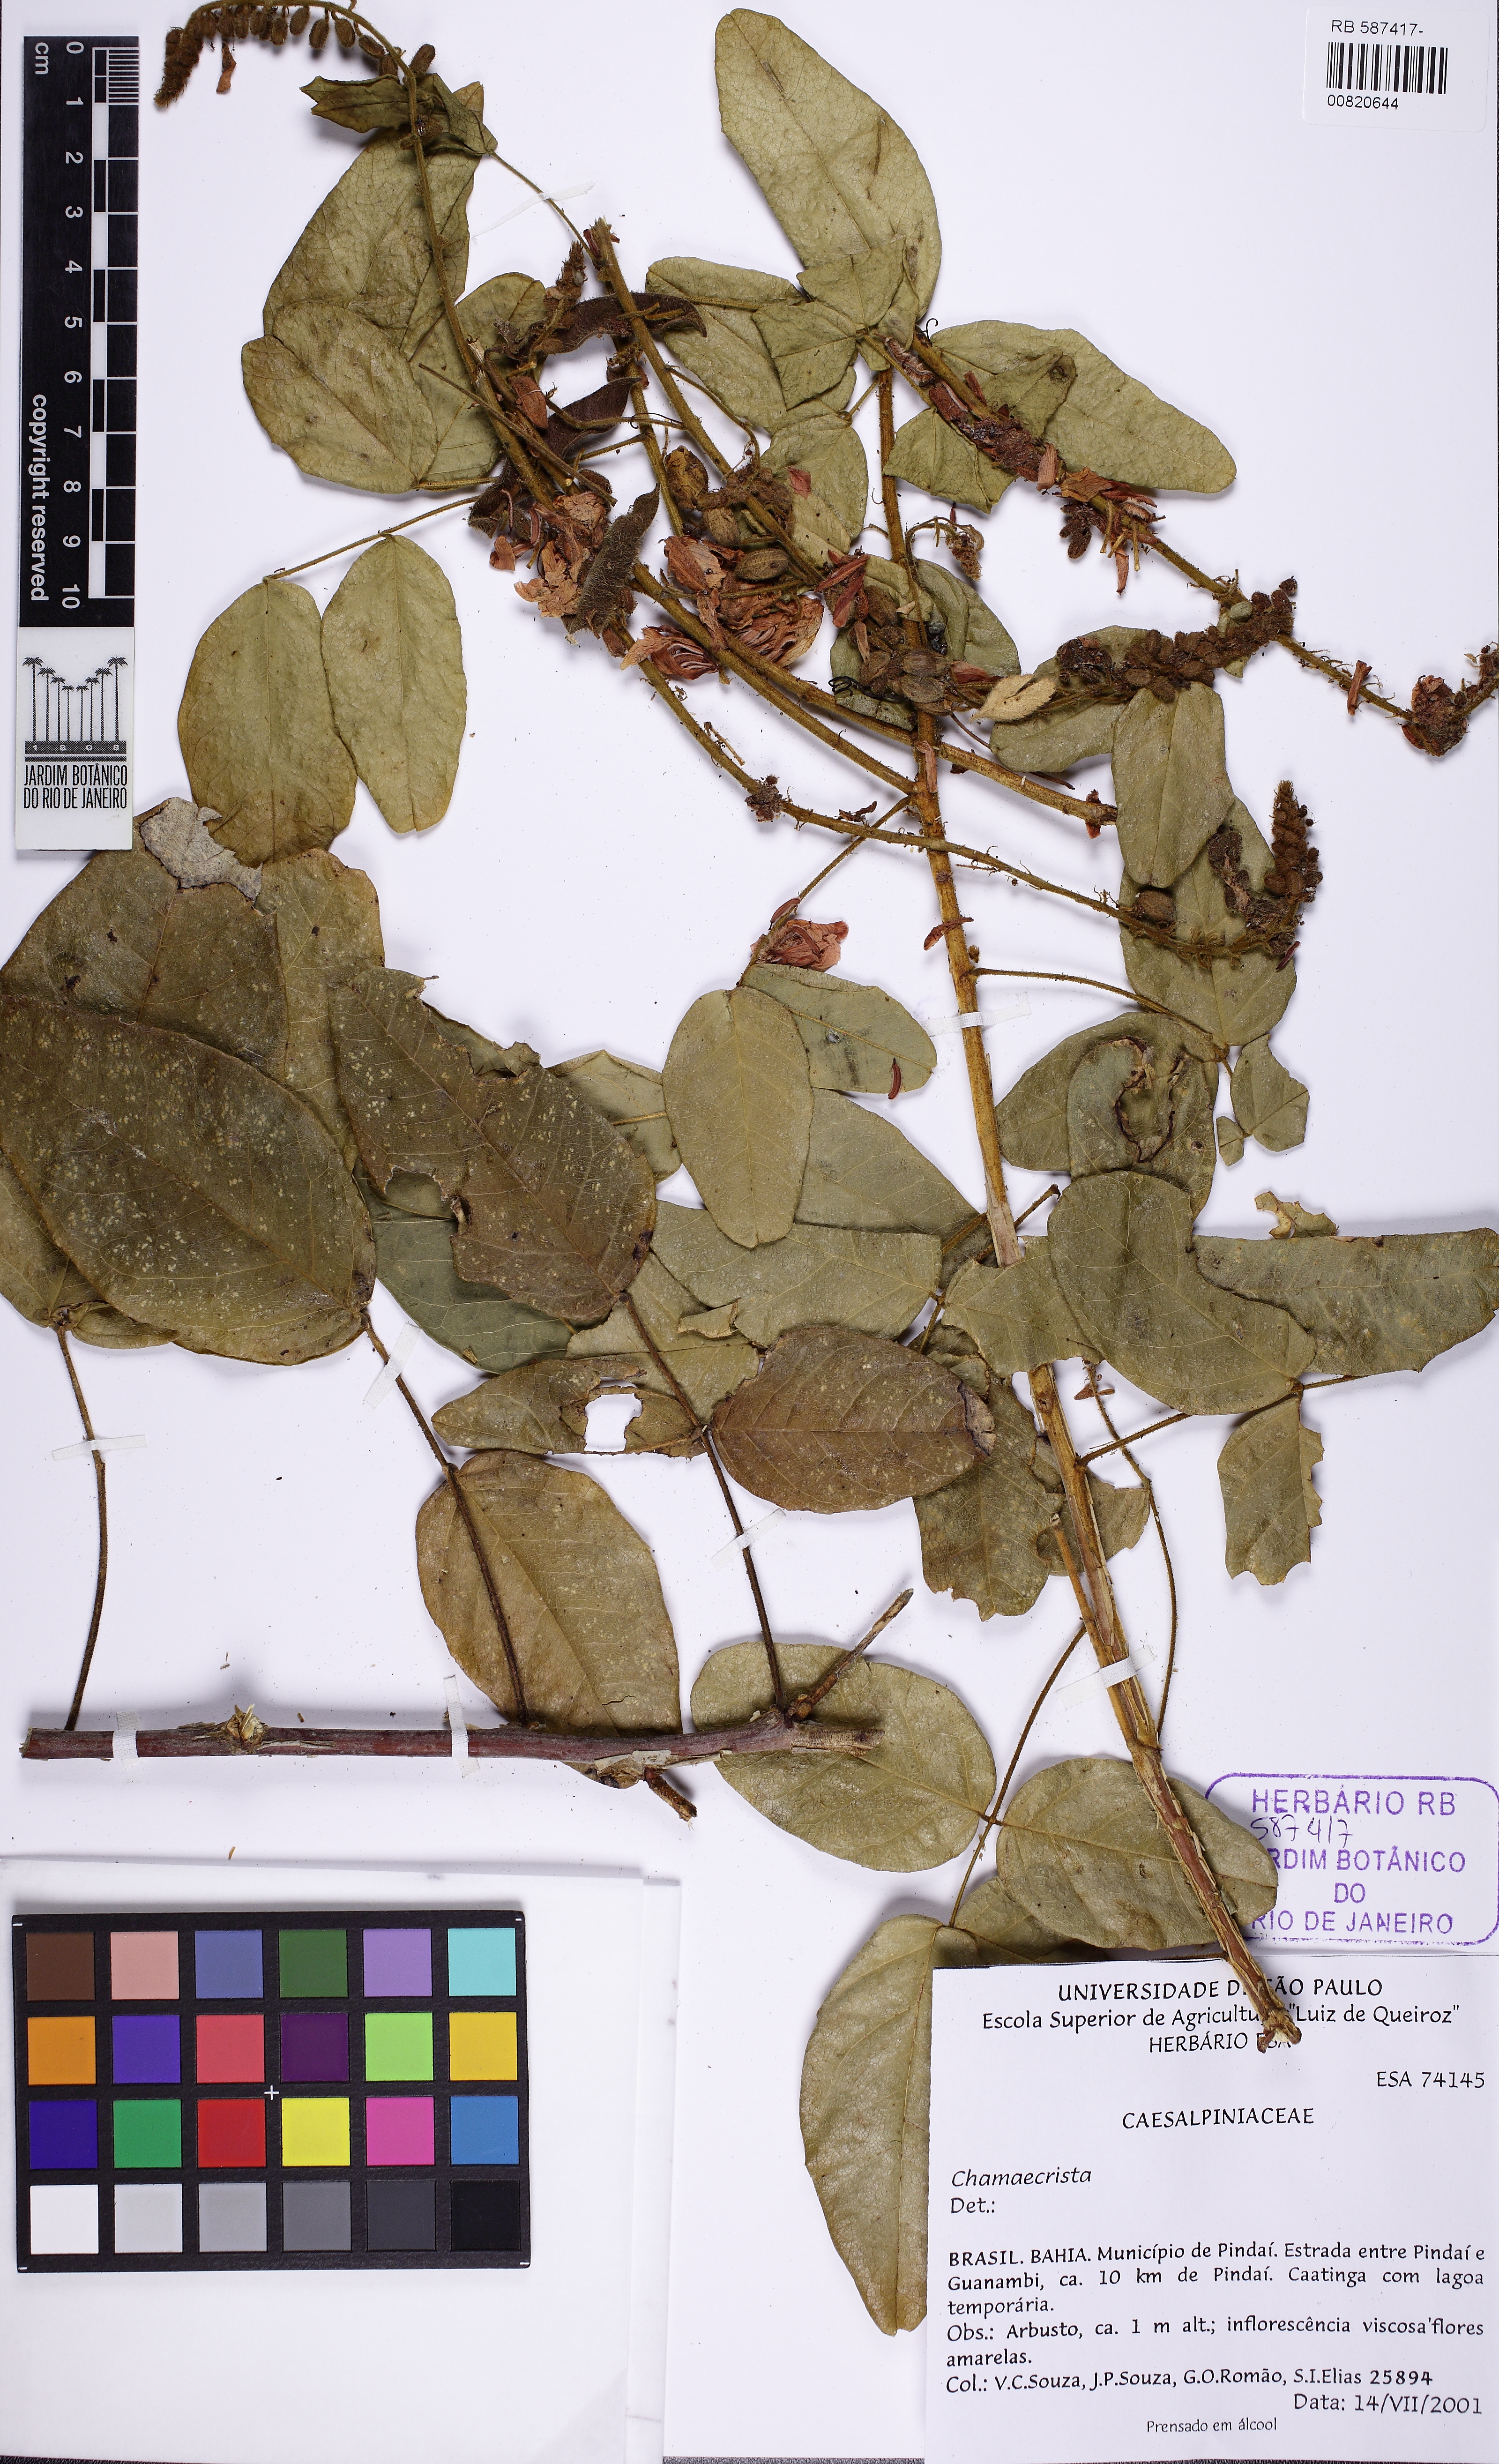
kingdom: Plantae
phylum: Tracheophyta
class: Magnoliopsida
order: Fabales
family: Fabaceae
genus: Chamaecrista
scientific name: Chamaecrista
